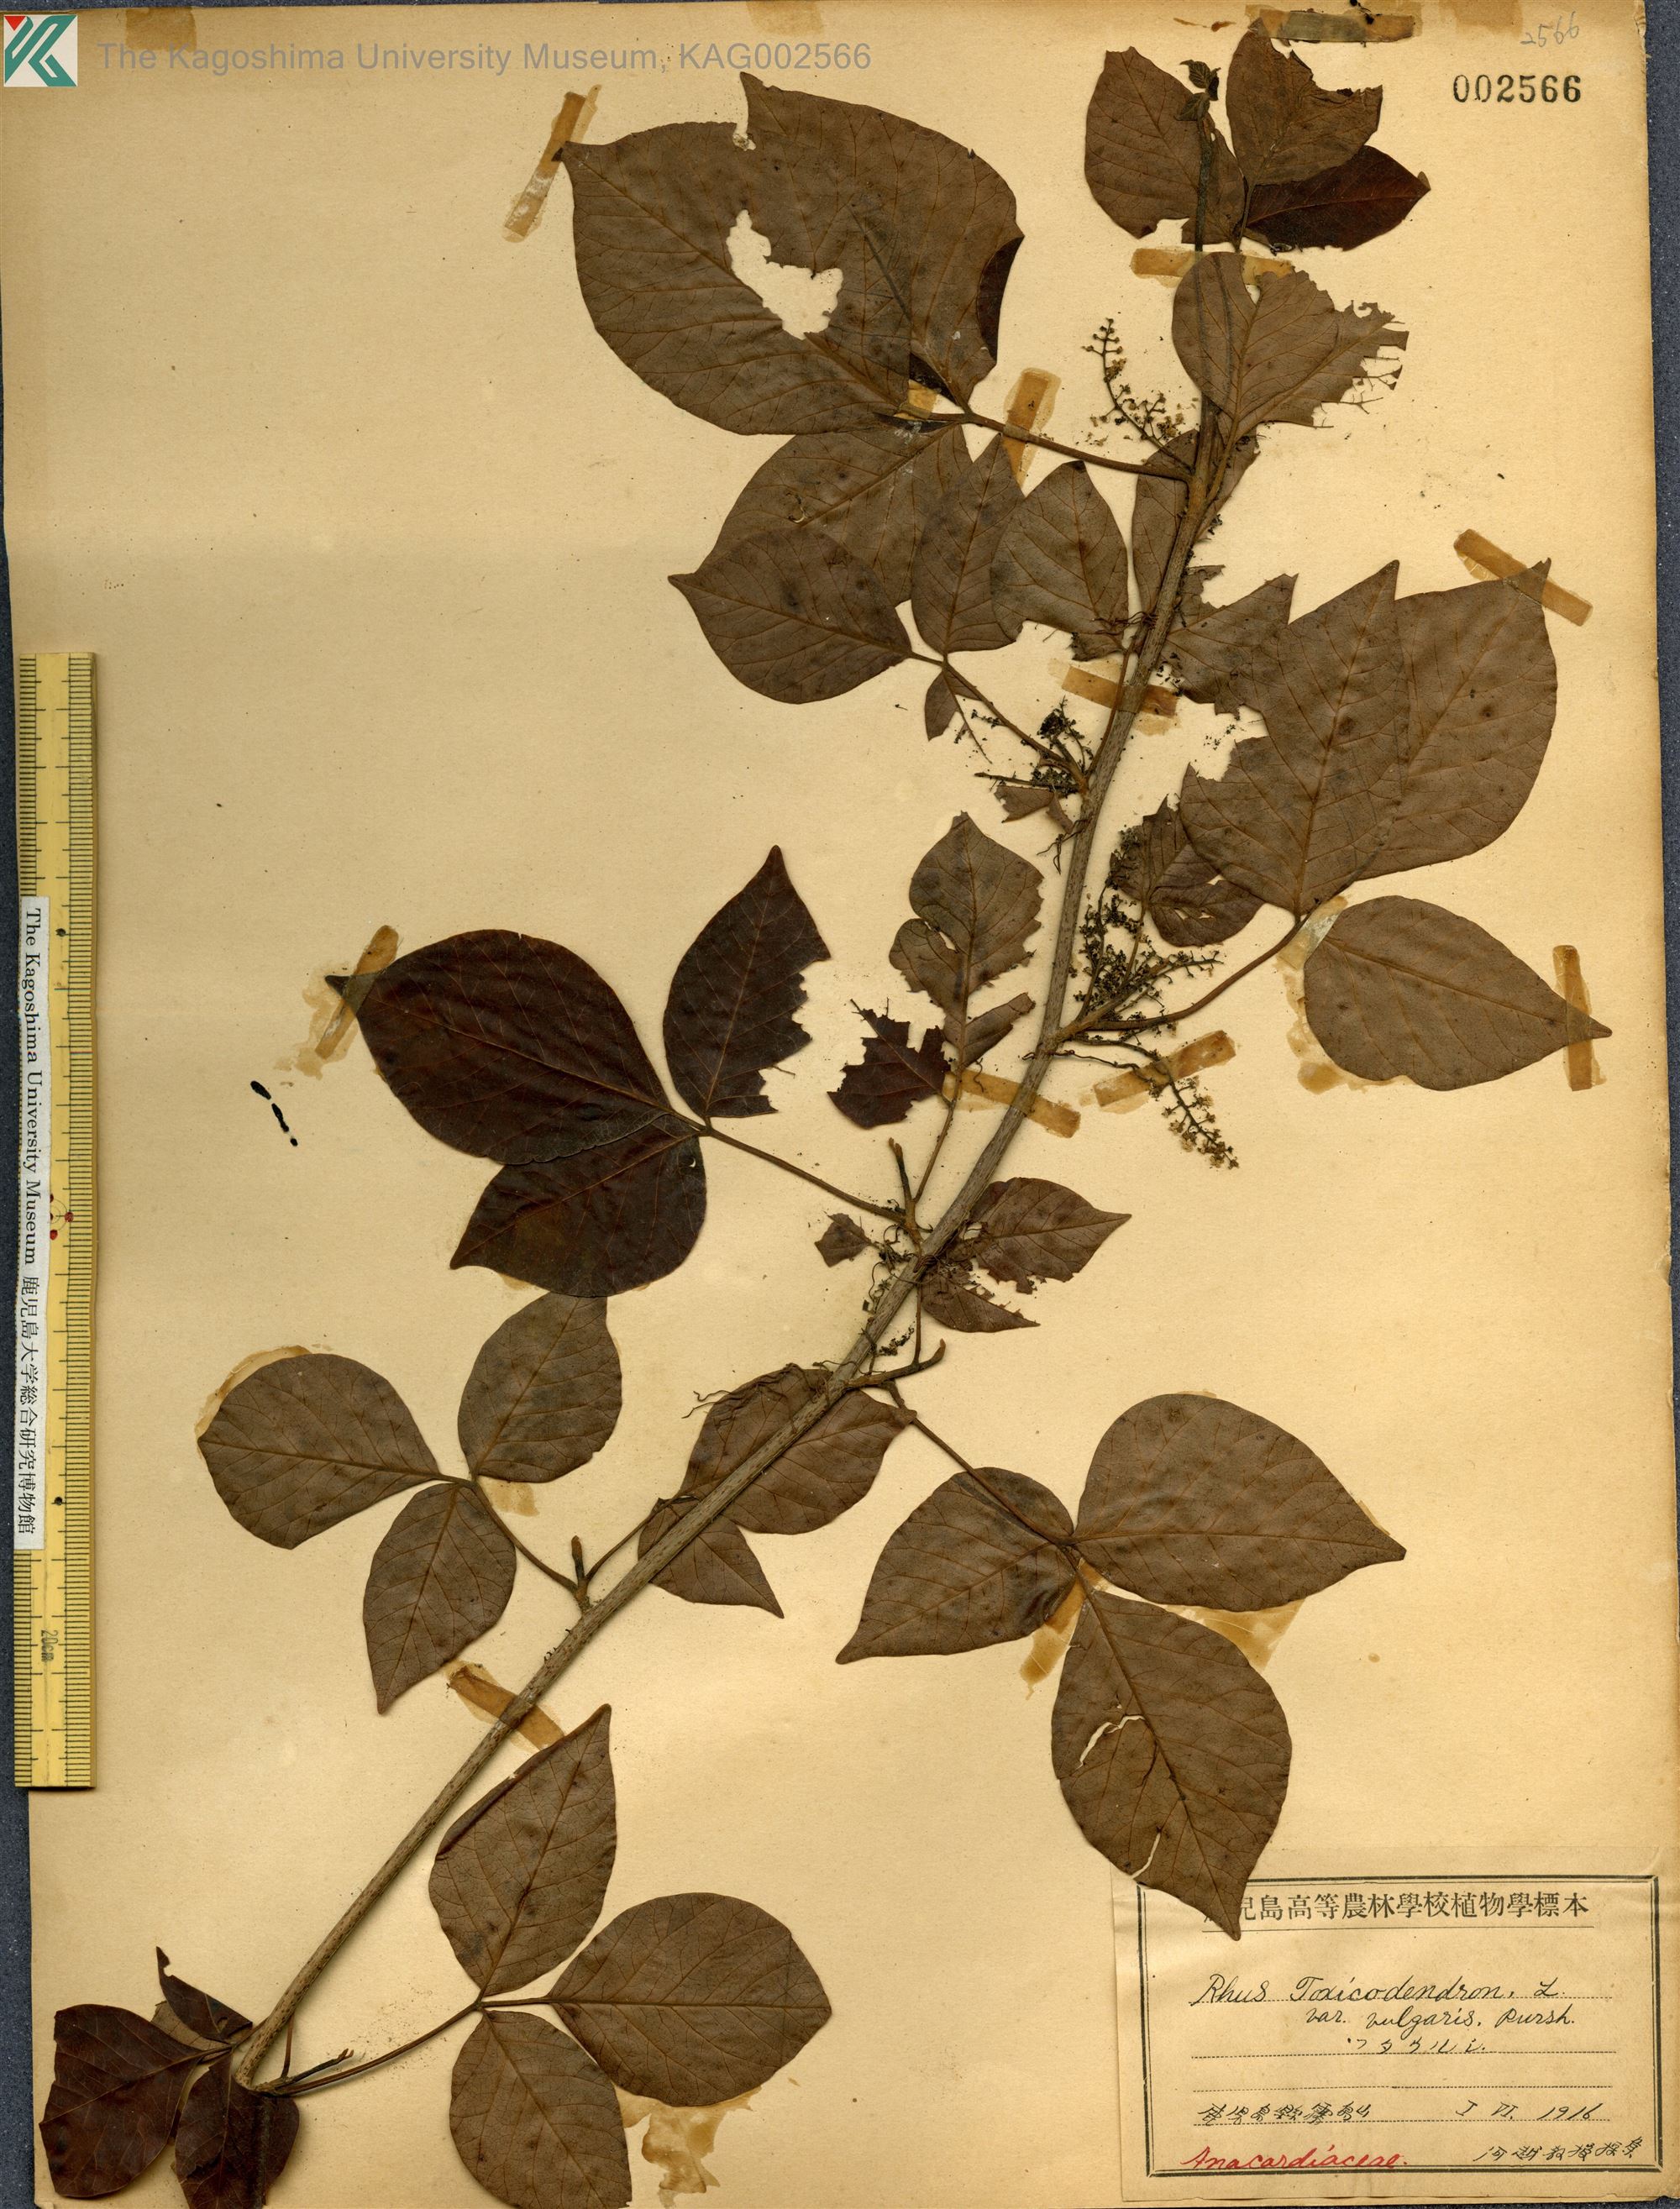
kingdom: Plantae
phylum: Tracheophyta
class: Magnoliopsida
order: Sapindales
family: Anacardiaceae
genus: Toxicodendron
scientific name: Toxicodendron orientale
